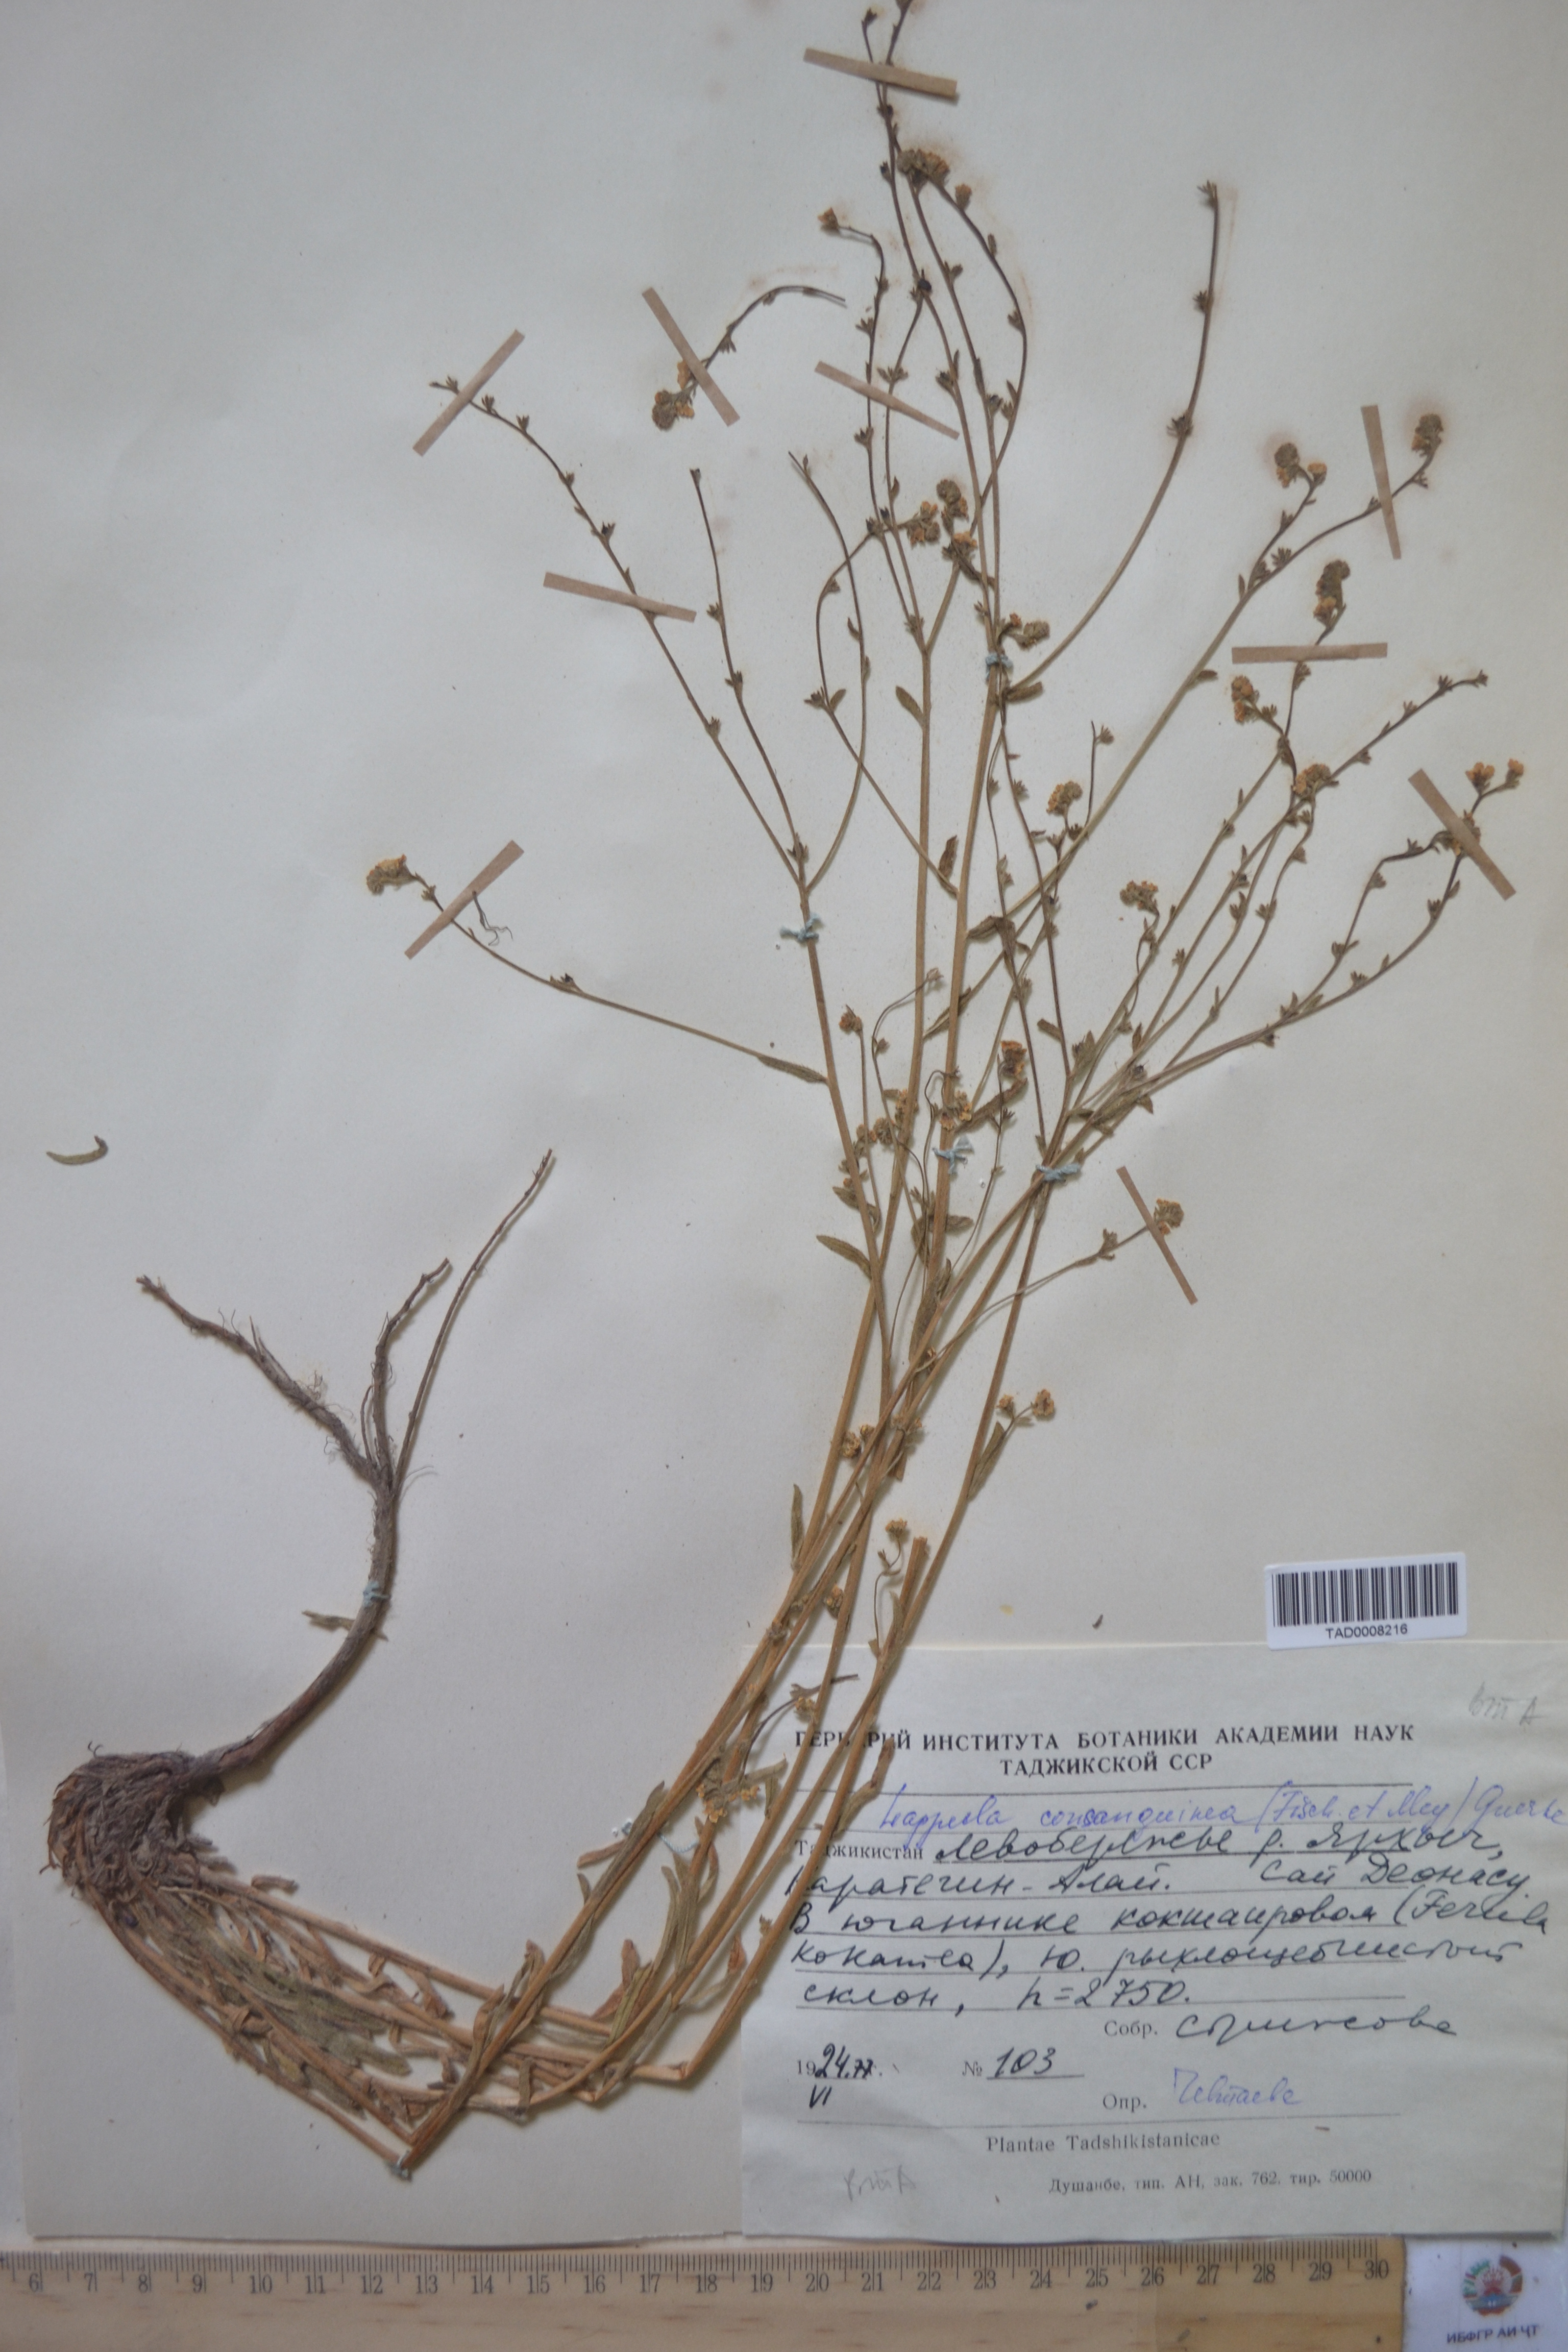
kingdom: Plantae
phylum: Tracheophyta
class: Magnoliopsida
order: Boraginales
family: Boraginaceae
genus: Lappula
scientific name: Lappula squarrosa
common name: European stickseed
